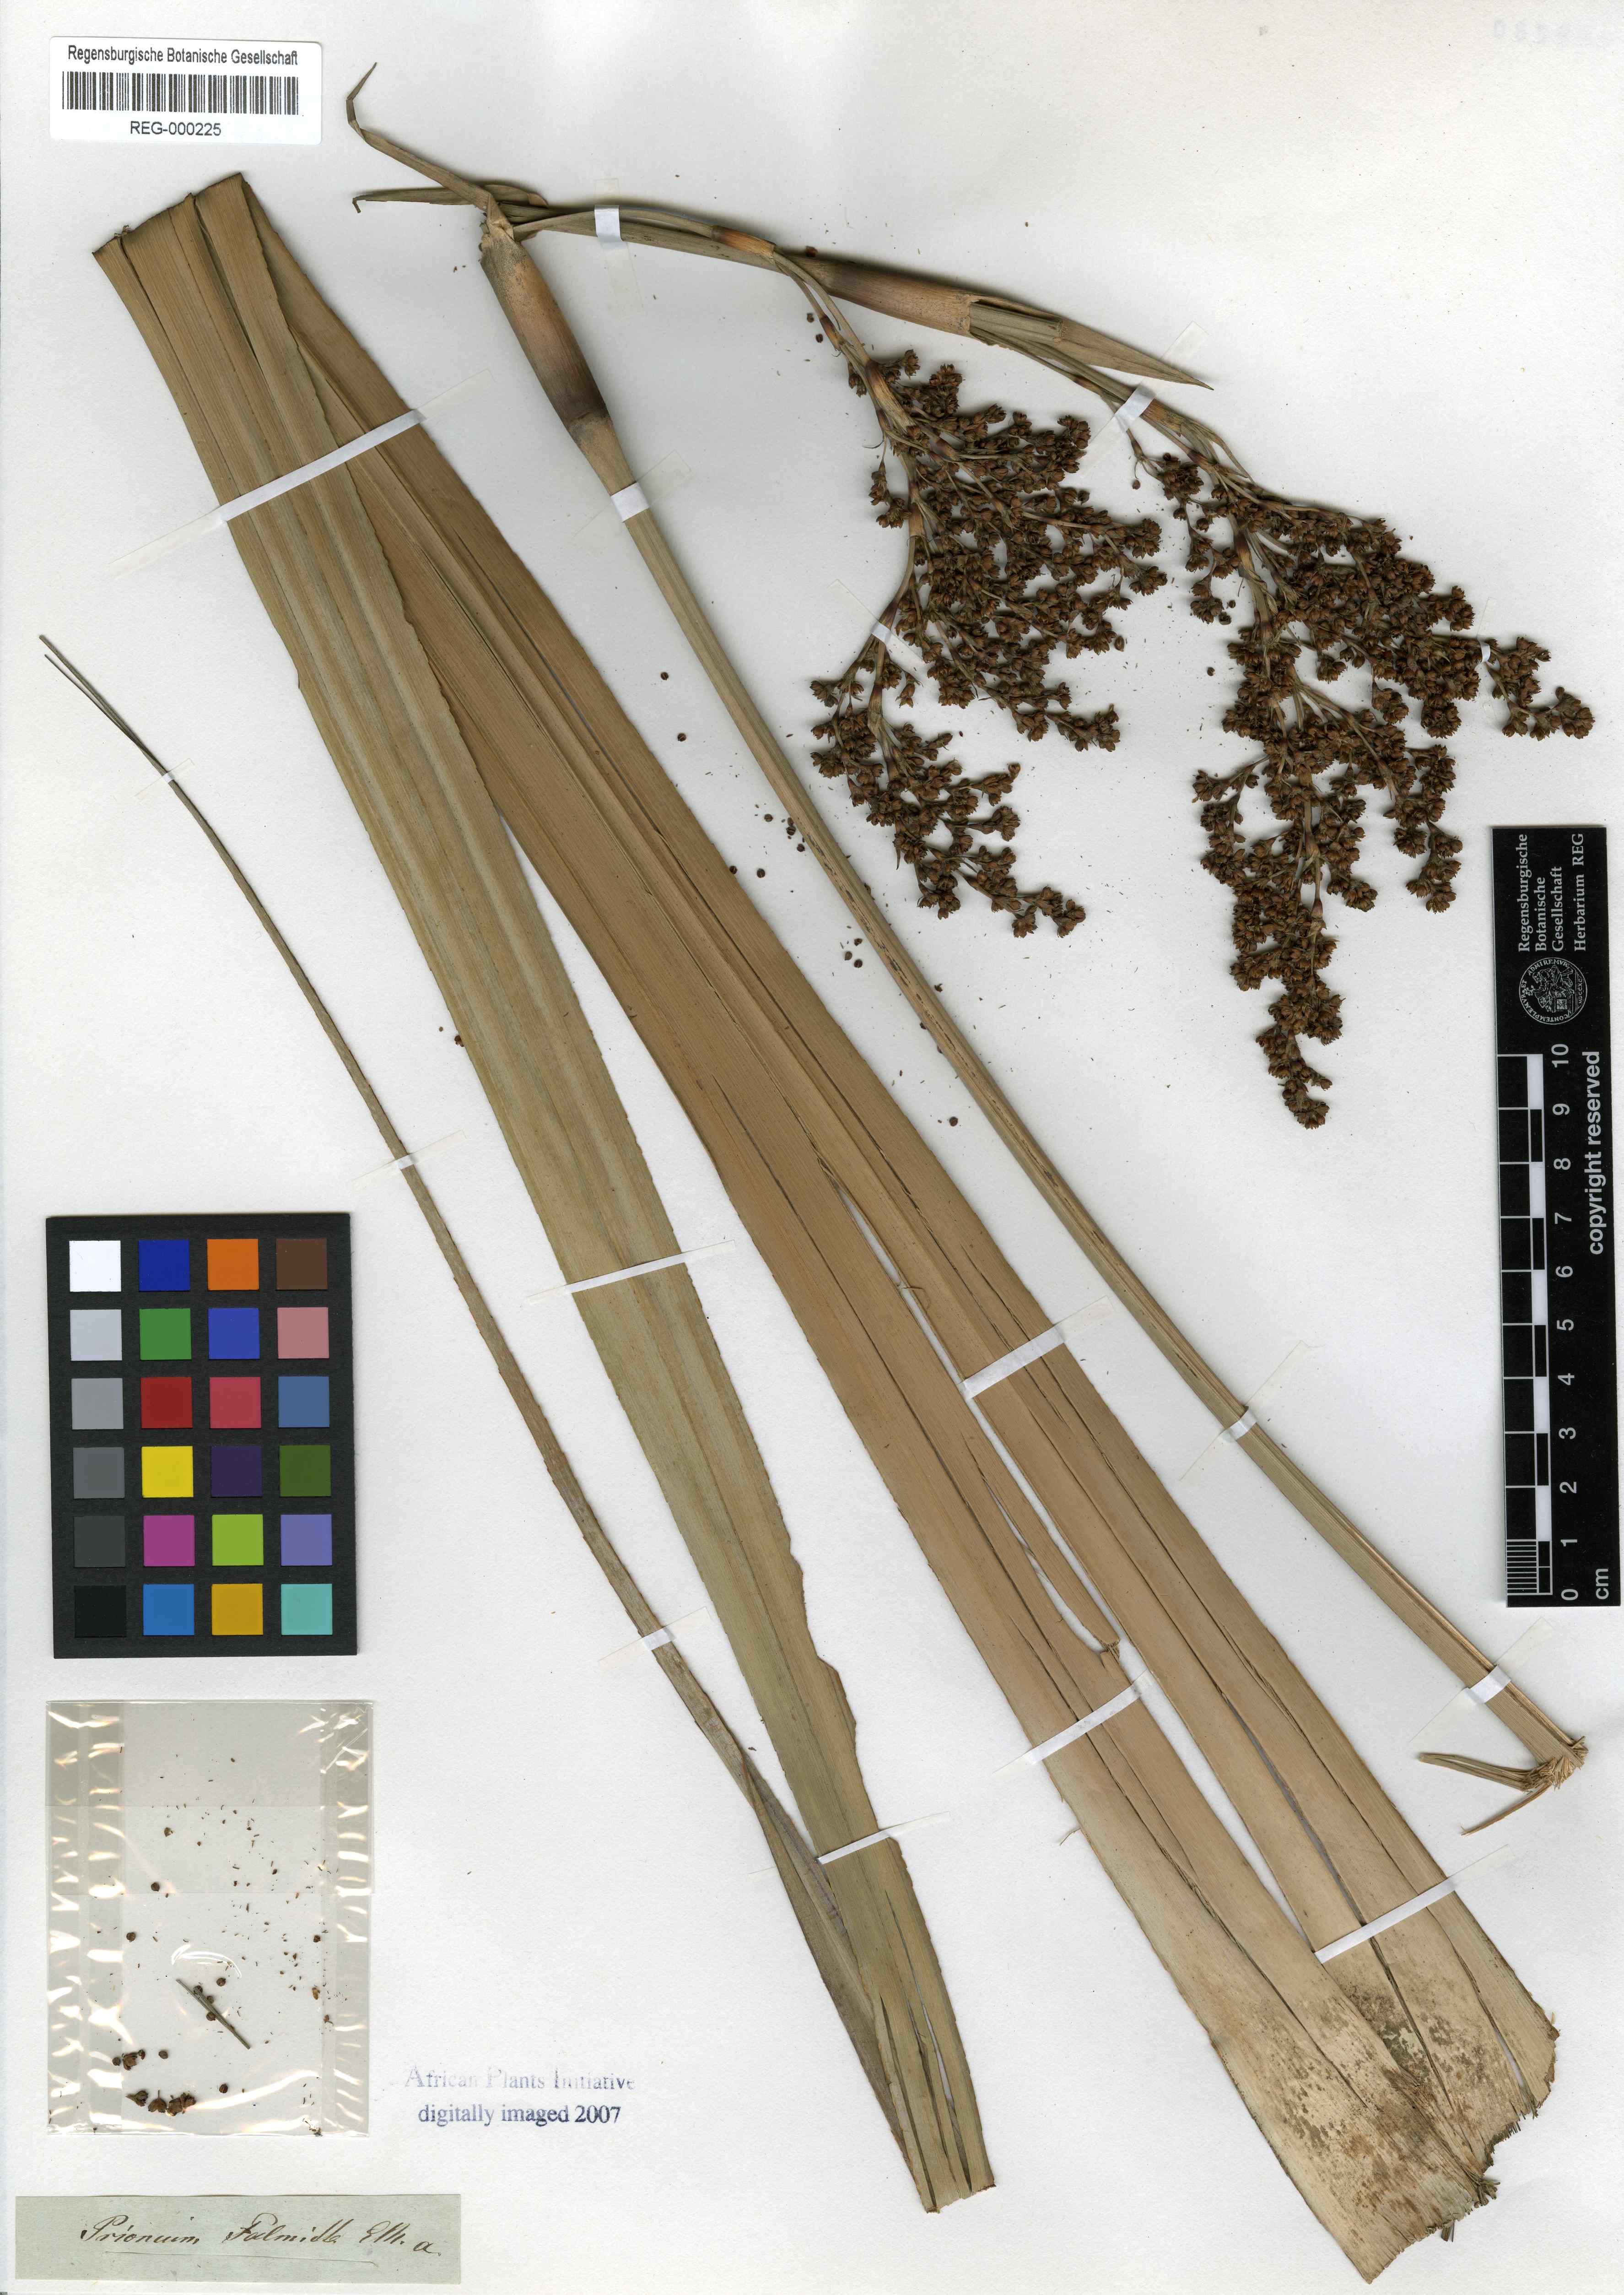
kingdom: Plantae
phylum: Tracheophyta
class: Liliopsida
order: Poales
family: Thurniaceae
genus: Prionium
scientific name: Prionium serratum
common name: Palmiet
